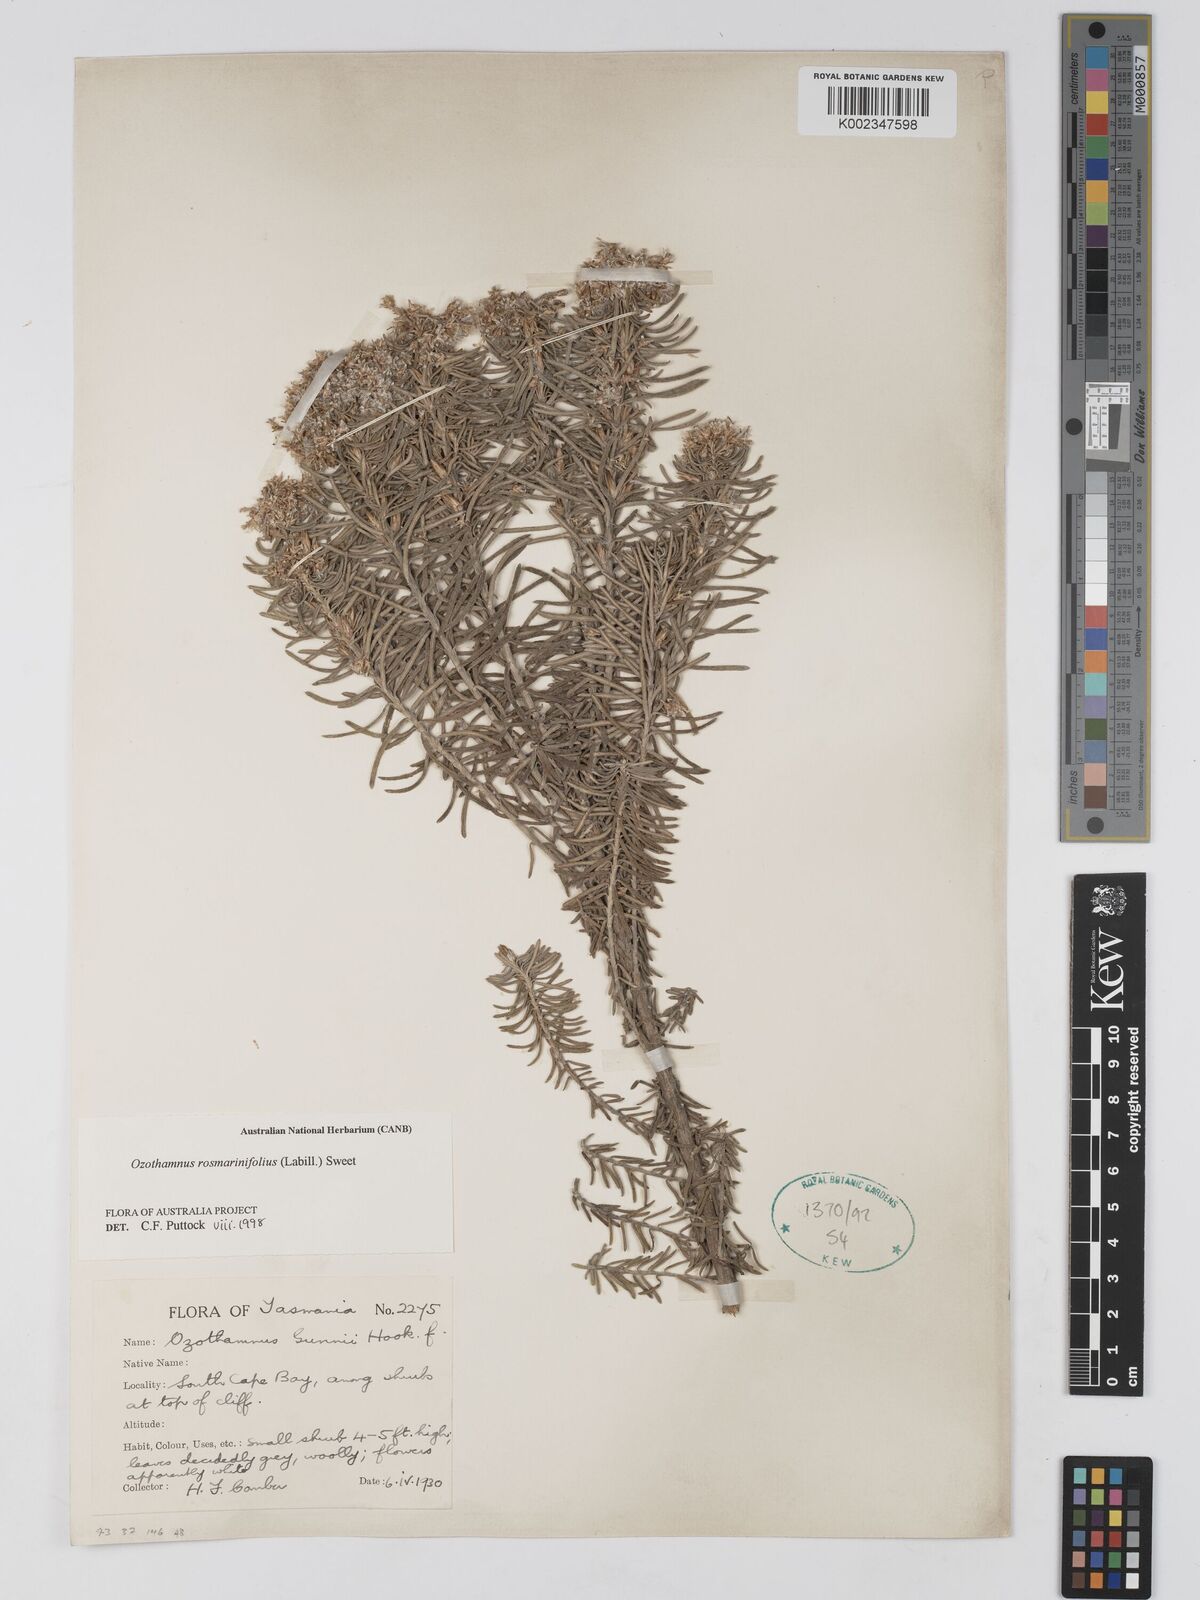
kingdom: Plantae
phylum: Tracheophyta
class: Magnoliopsida
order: Asterales
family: Asteraceae
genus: Ozothamnus
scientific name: Ozothamnus rosmarinifolius
